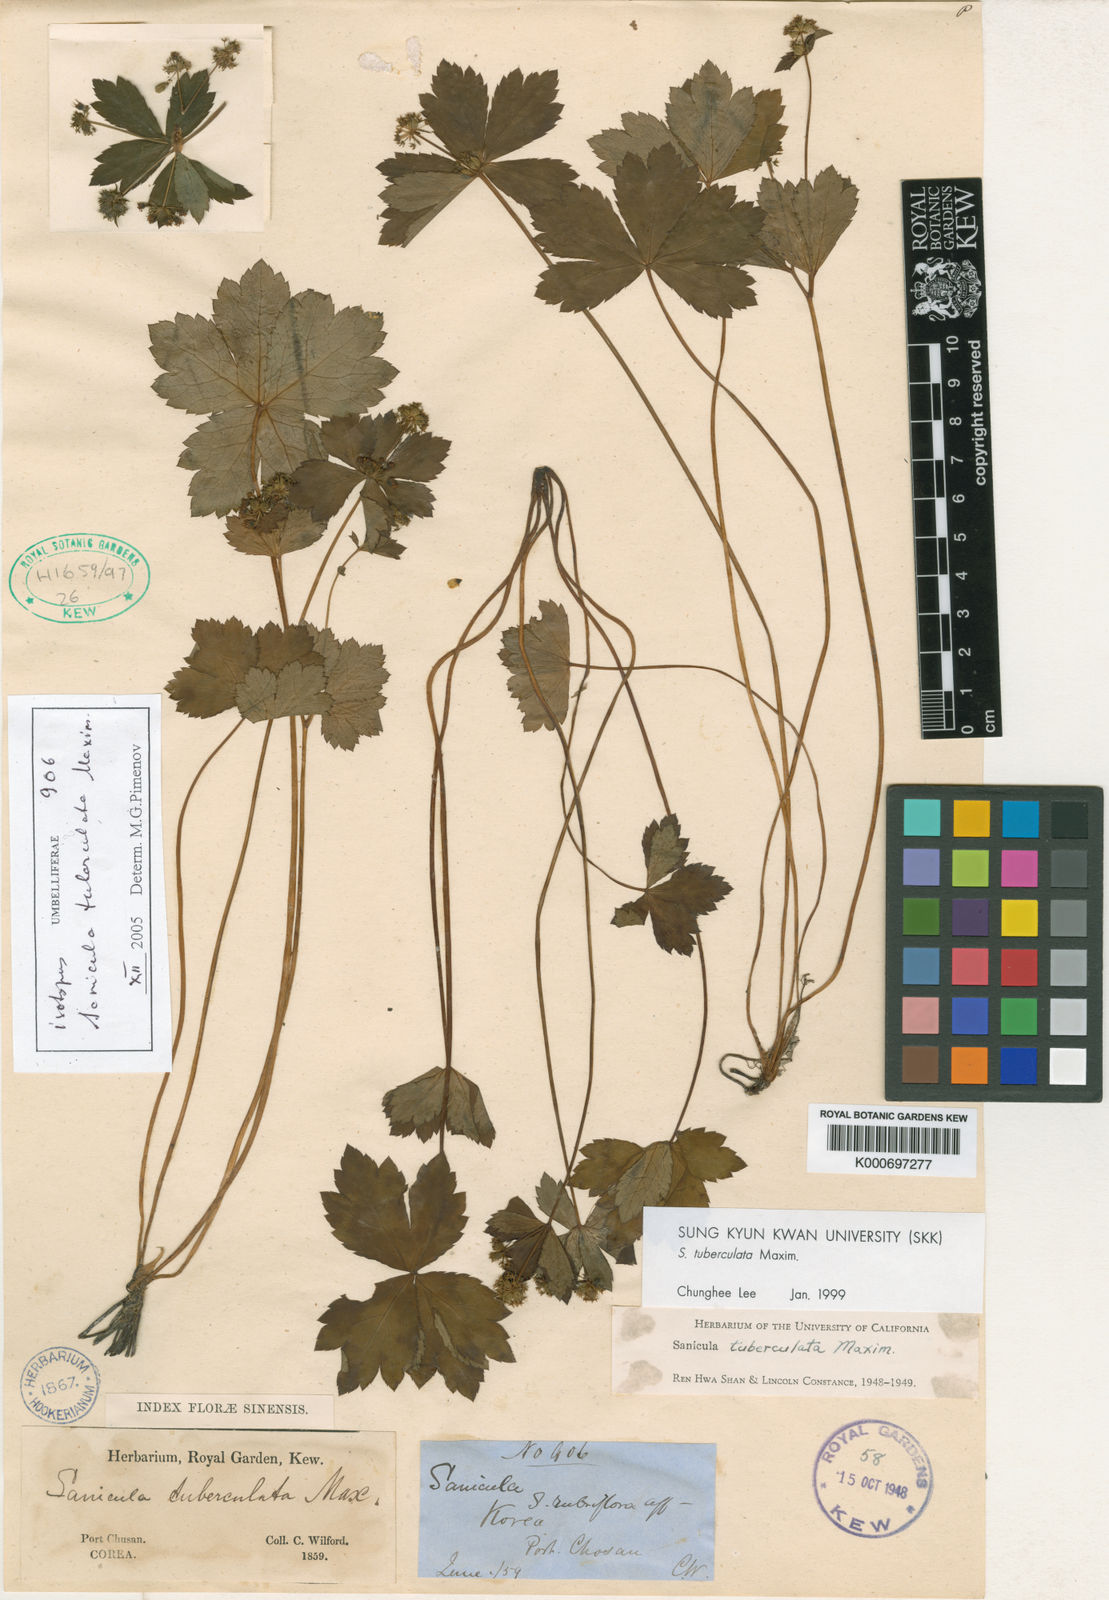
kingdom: Plantae
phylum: Tracheophyta
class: Magnoliopsida
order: Apiales
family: Apiaceae
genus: Sanicula
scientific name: Sanicula tuberculata
